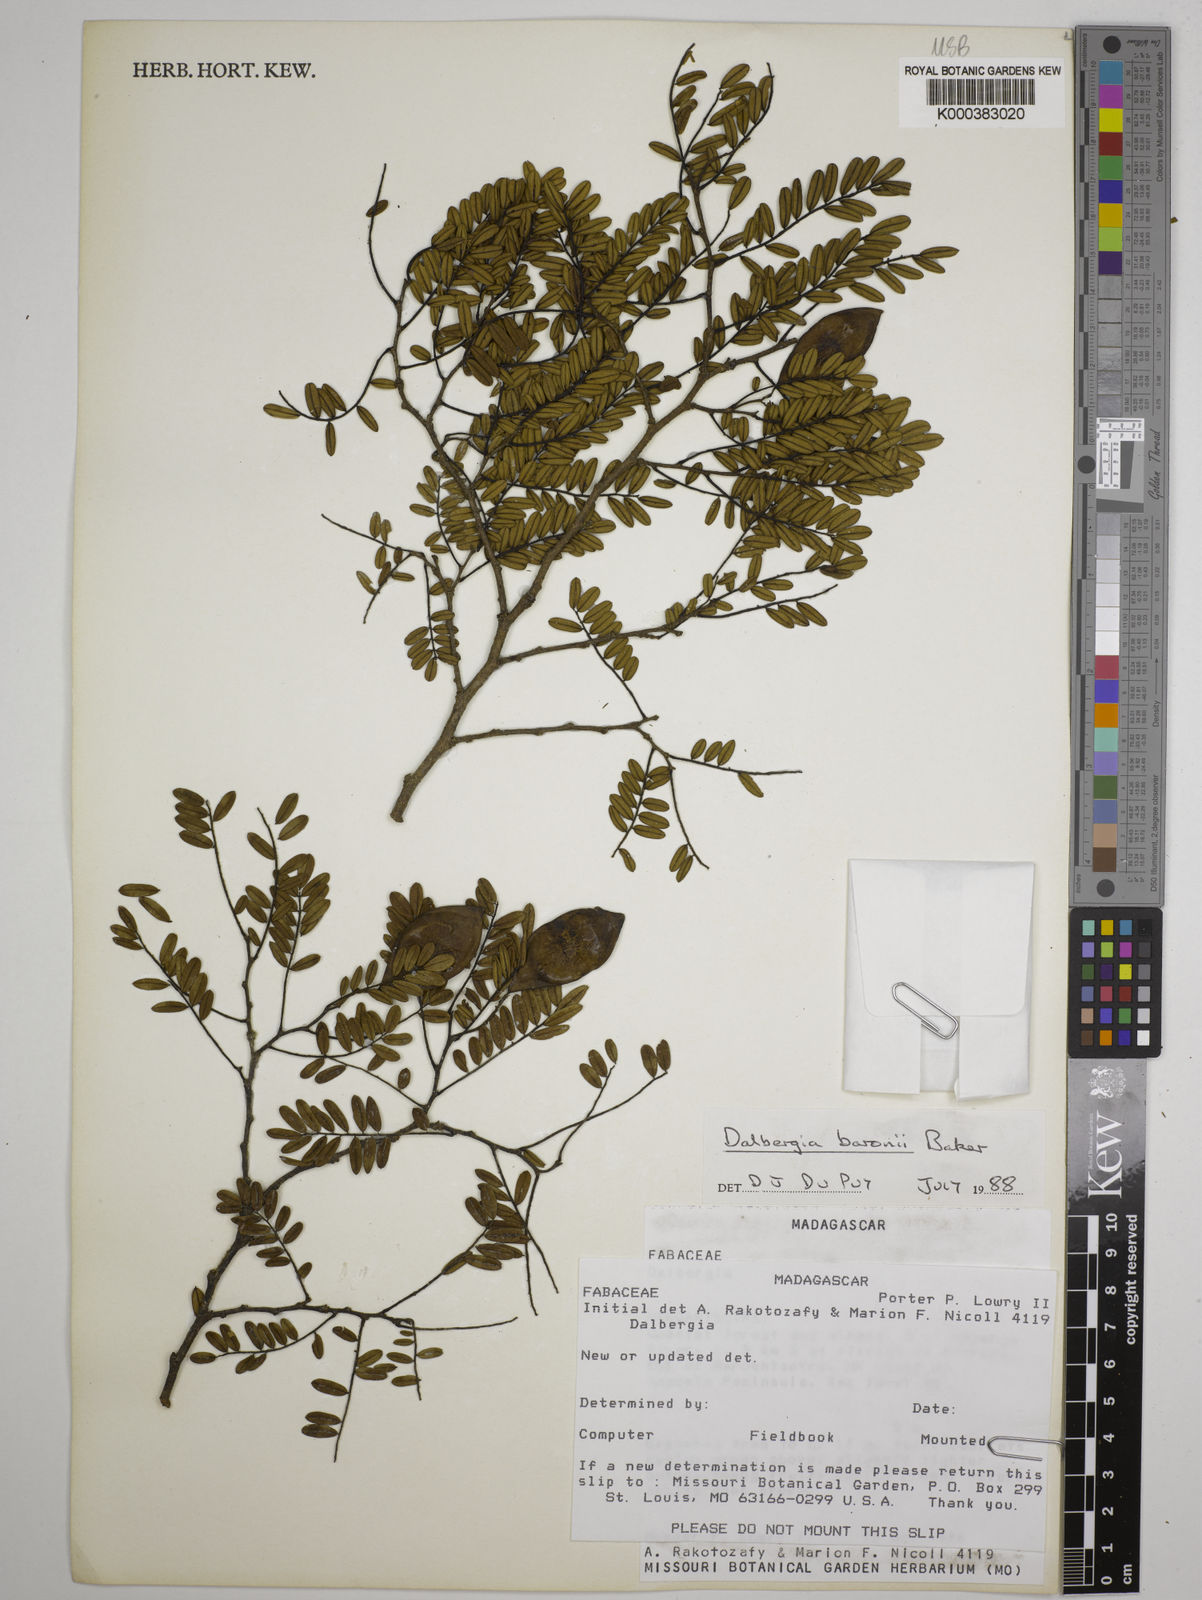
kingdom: Plantae
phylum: Tracheophyta
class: Magnoliopsida
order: Fabales
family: Fabaceae
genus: Dalbergia
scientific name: Dalbergia baronii
